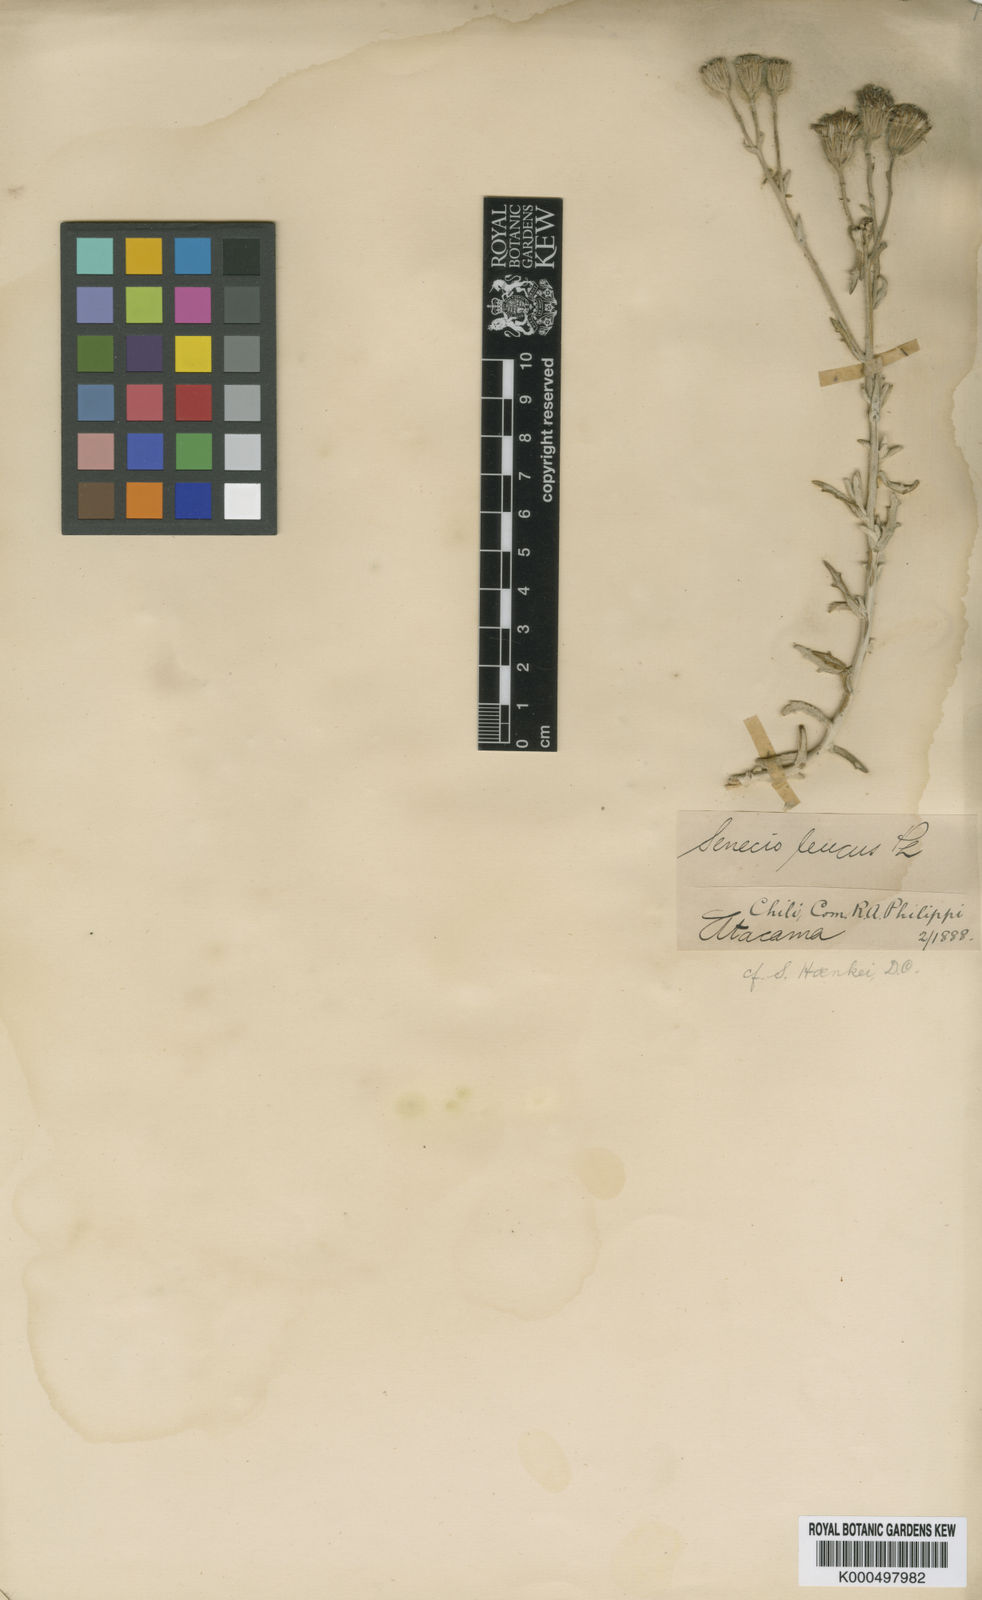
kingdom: Plantae
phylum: Tracheophyta
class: Magnoliopsida
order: Asterales
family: Asteraceae
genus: Senecio
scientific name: Senecio leucus
